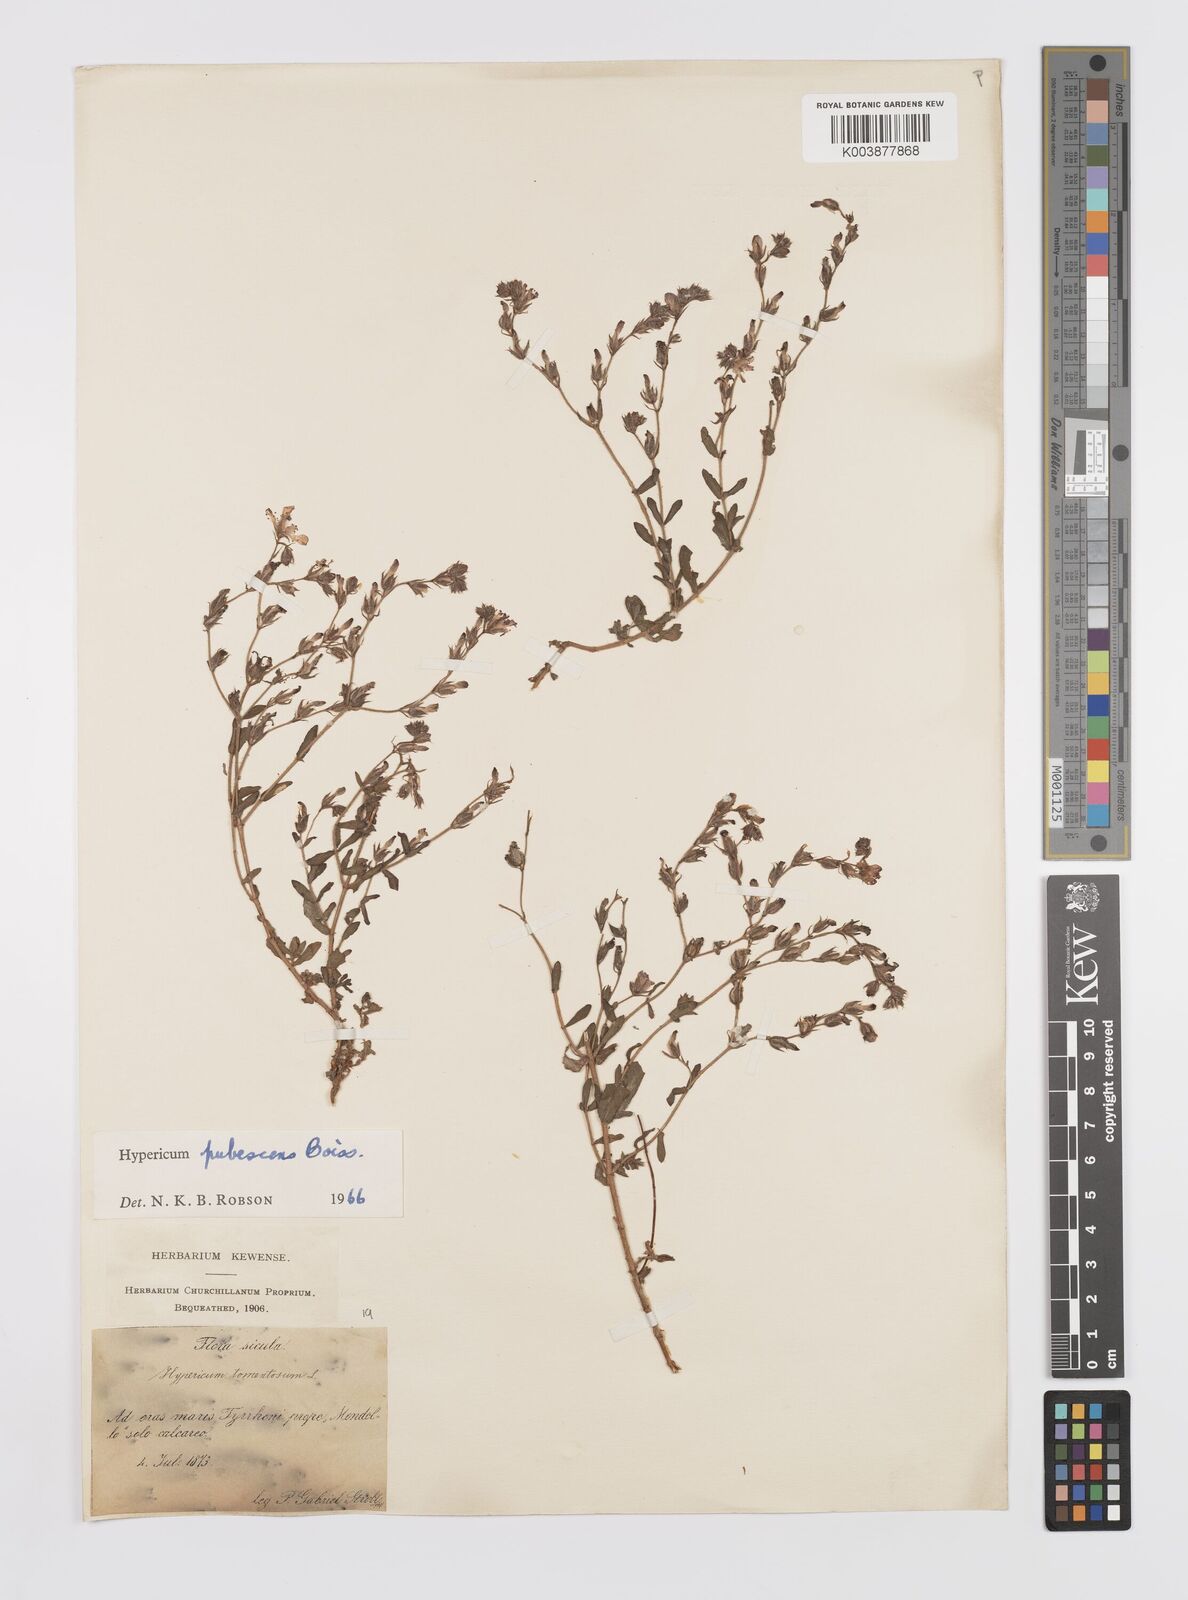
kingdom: Plantae
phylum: Tracheophyta
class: Magnoliopsida
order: Malpighiales
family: Hypericaceae
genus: Hypericum
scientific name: Hypericum pubescens
